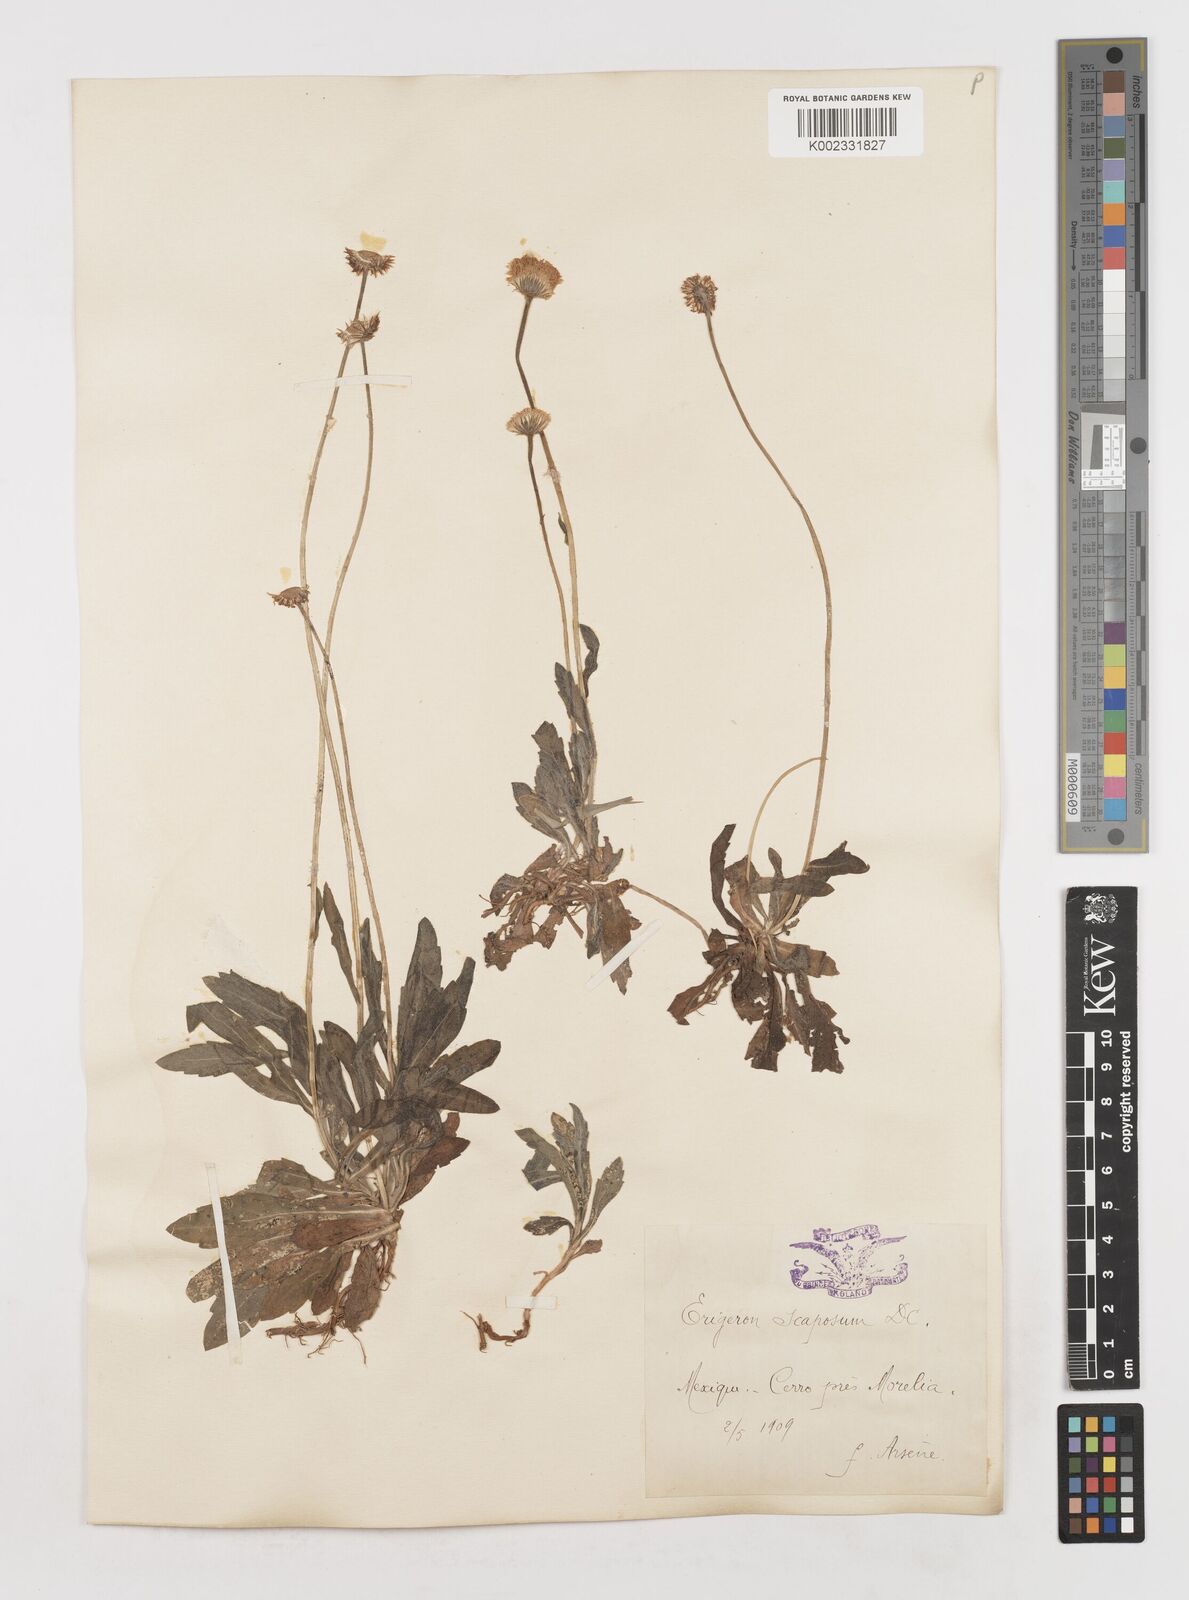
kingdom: Plantae
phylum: Tracheophyta
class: Magnoliopsida
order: Asterales
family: Asteraceae
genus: Erigeron
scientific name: Erigeron longipes
